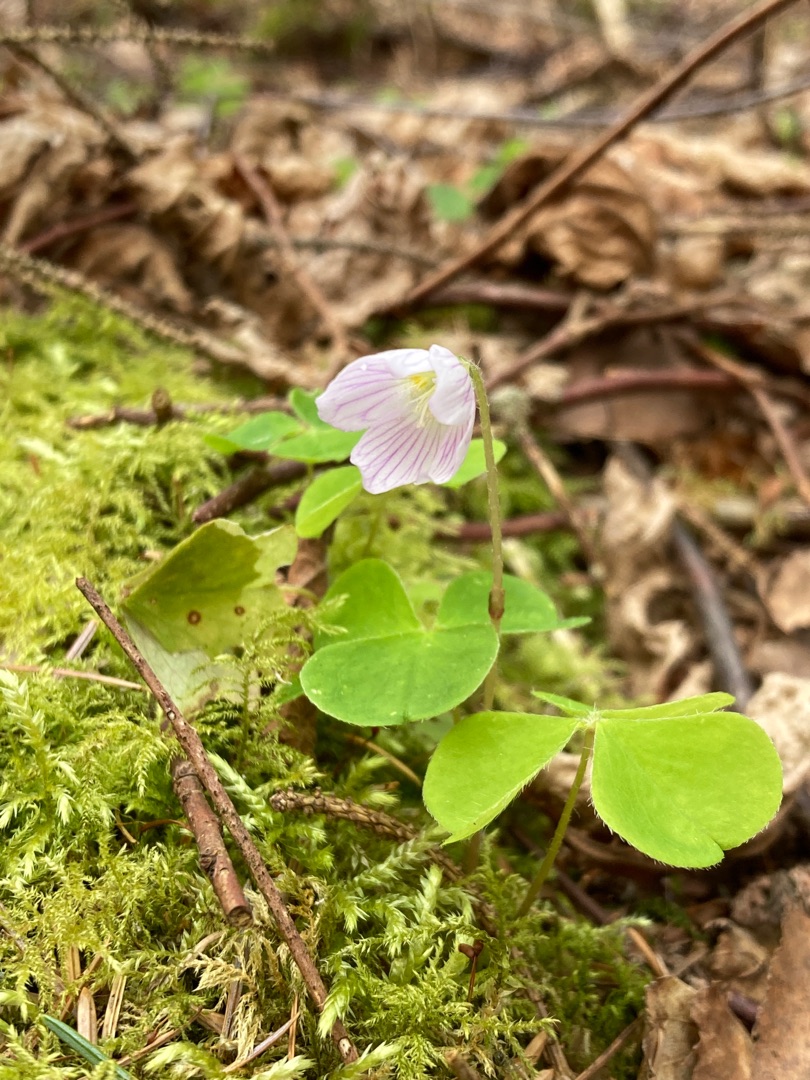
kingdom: Plantae
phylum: Tracheophyta
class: Magnoliopsida
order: Oxalidales
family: Oxalidaceae
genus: Oxalis
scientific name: Oxalis acetosella
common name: Skovsyre
